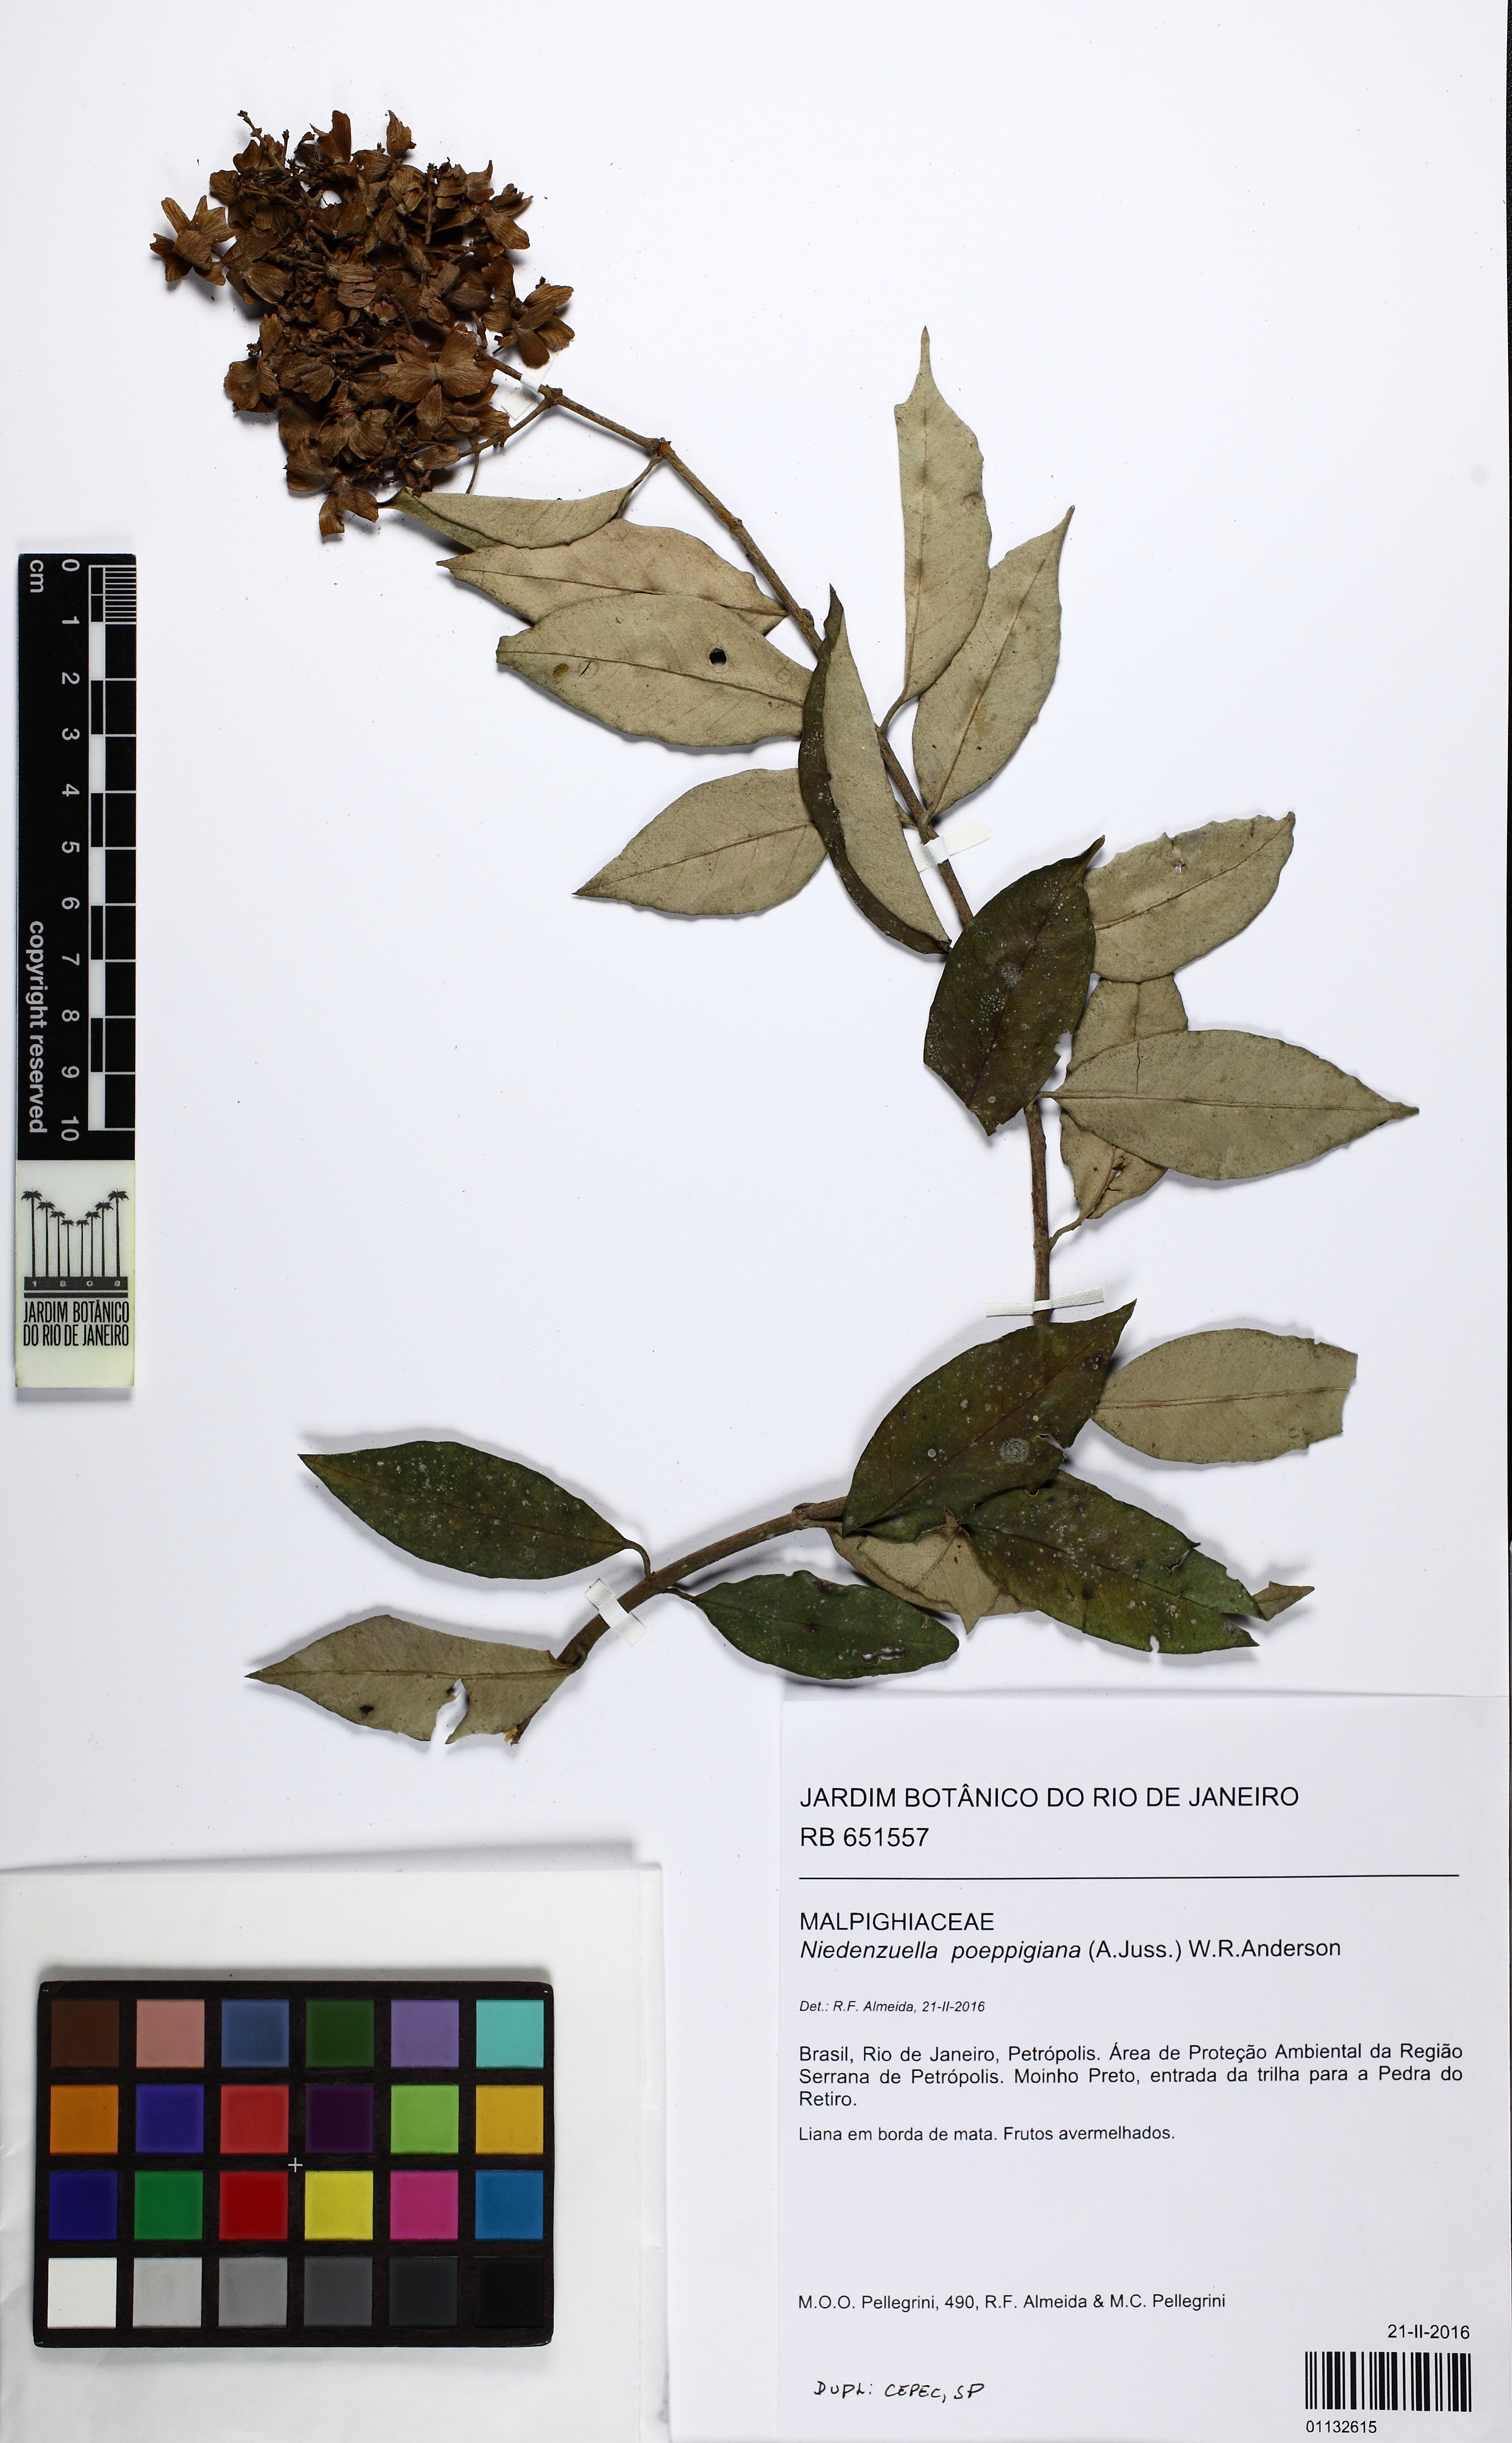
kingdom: Plantae
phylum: Tracheophyta
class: Magnoliopsida
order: Malpighiales
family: Malpighiaceae
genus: Niedenzuella
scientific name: Niedenzuella poeppigiana
